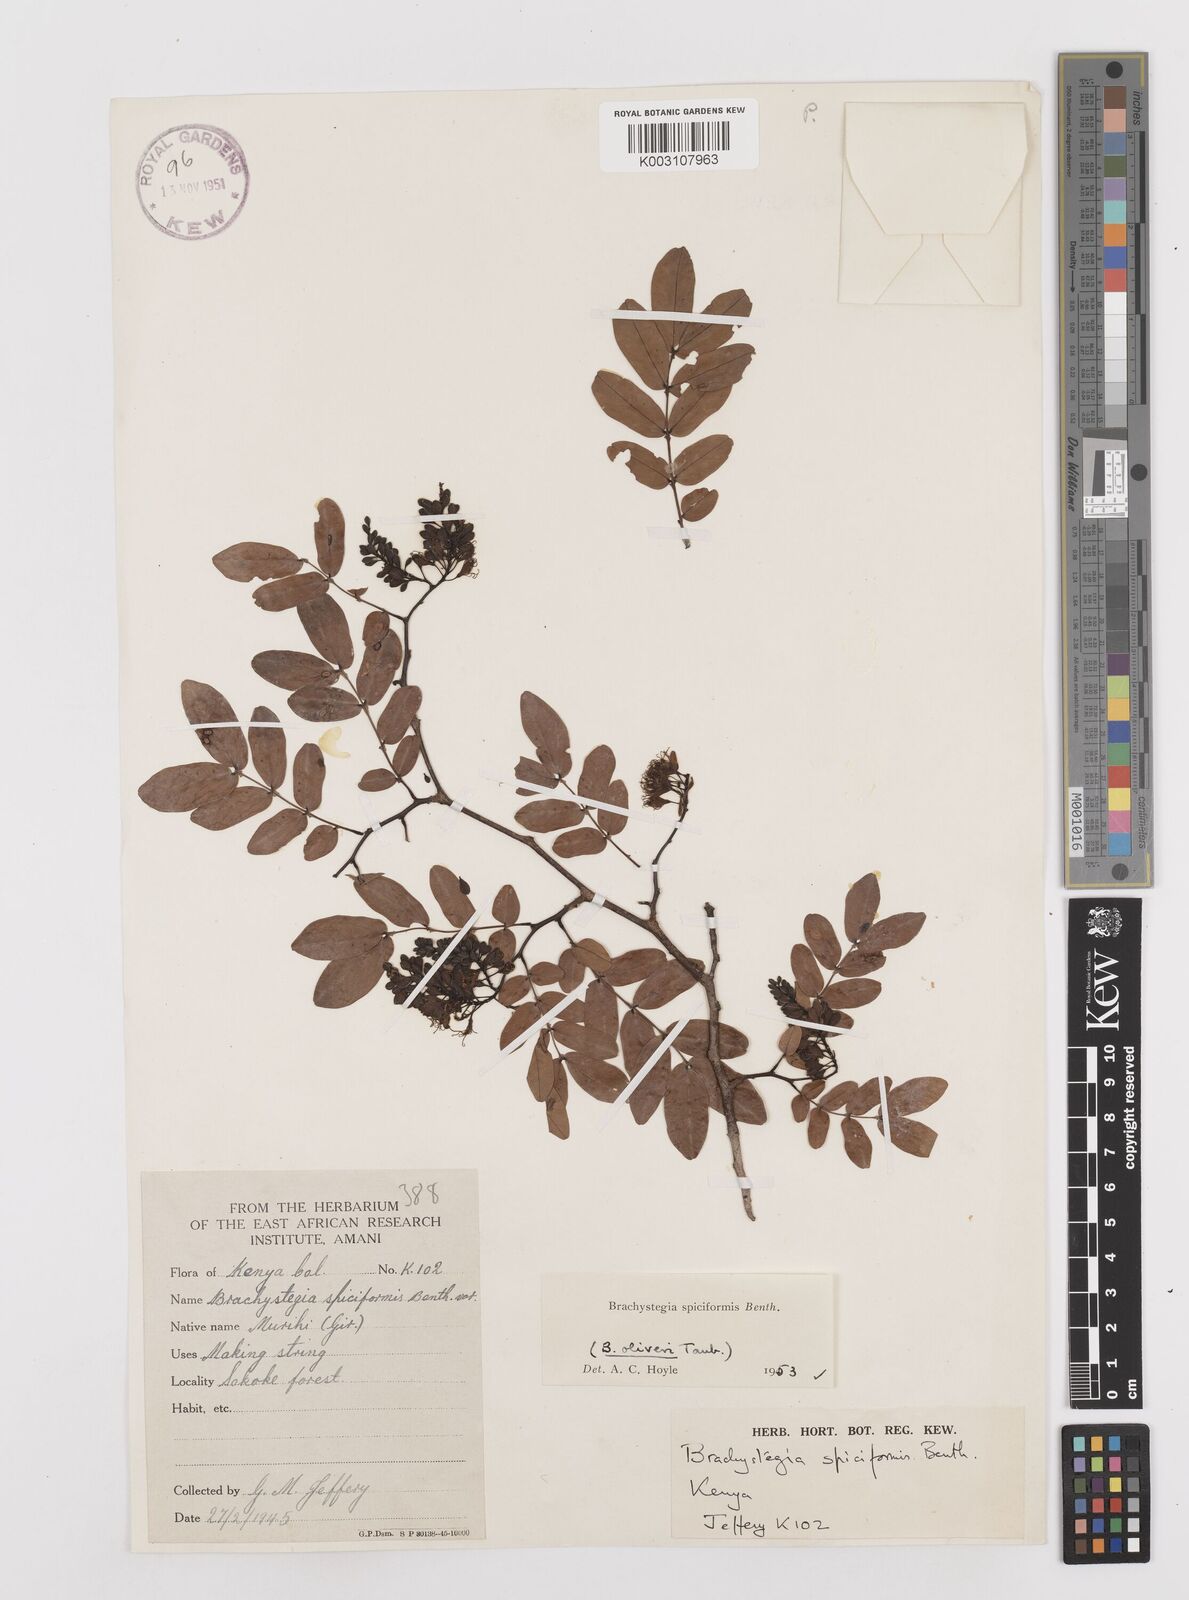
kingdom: Plantae
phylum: Tracheophyta
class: Magnoliopsida
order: Fabales
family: Fabaceae
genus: Brachystegia
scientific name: Brachystegia spiciformis
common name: Zebrawood
